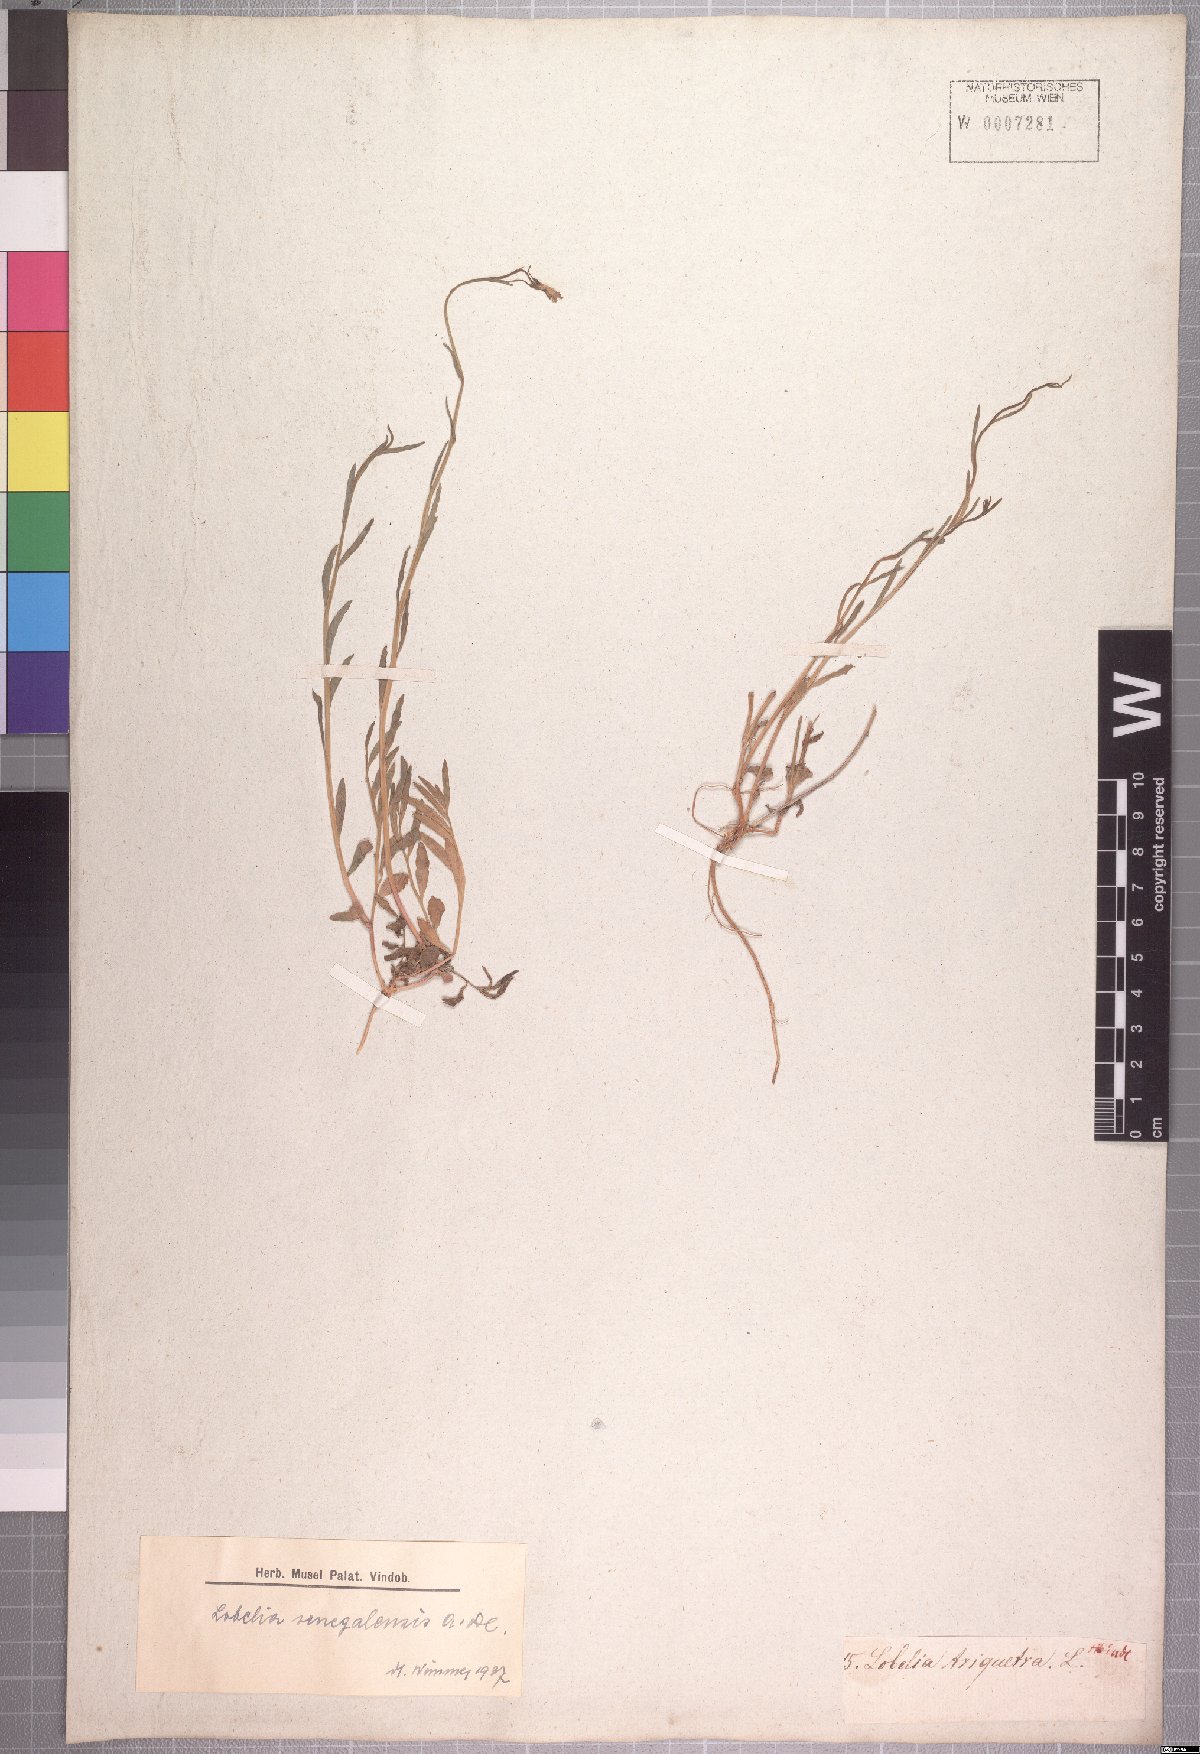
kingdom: Plantae
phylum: Tracheophyta
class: Magnoliopsida
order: Asterales
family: Campanulaceae
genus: Lobelia
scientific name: Lobelia erinus
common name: Edging lobelia
